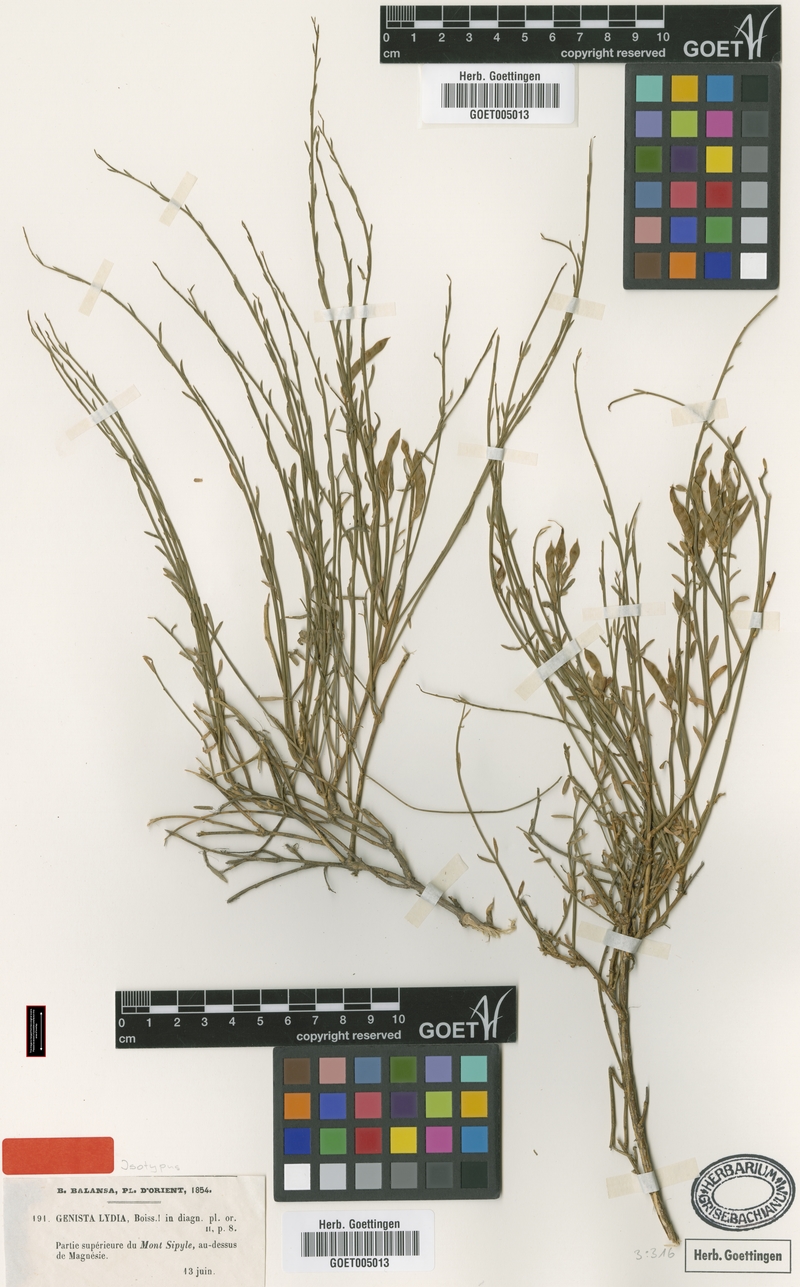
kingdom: Plantae
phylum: Tracheophyta
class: Magnoliopsida
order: Fabales
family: Fabaceae
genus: Genista
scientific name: Genista lydia
